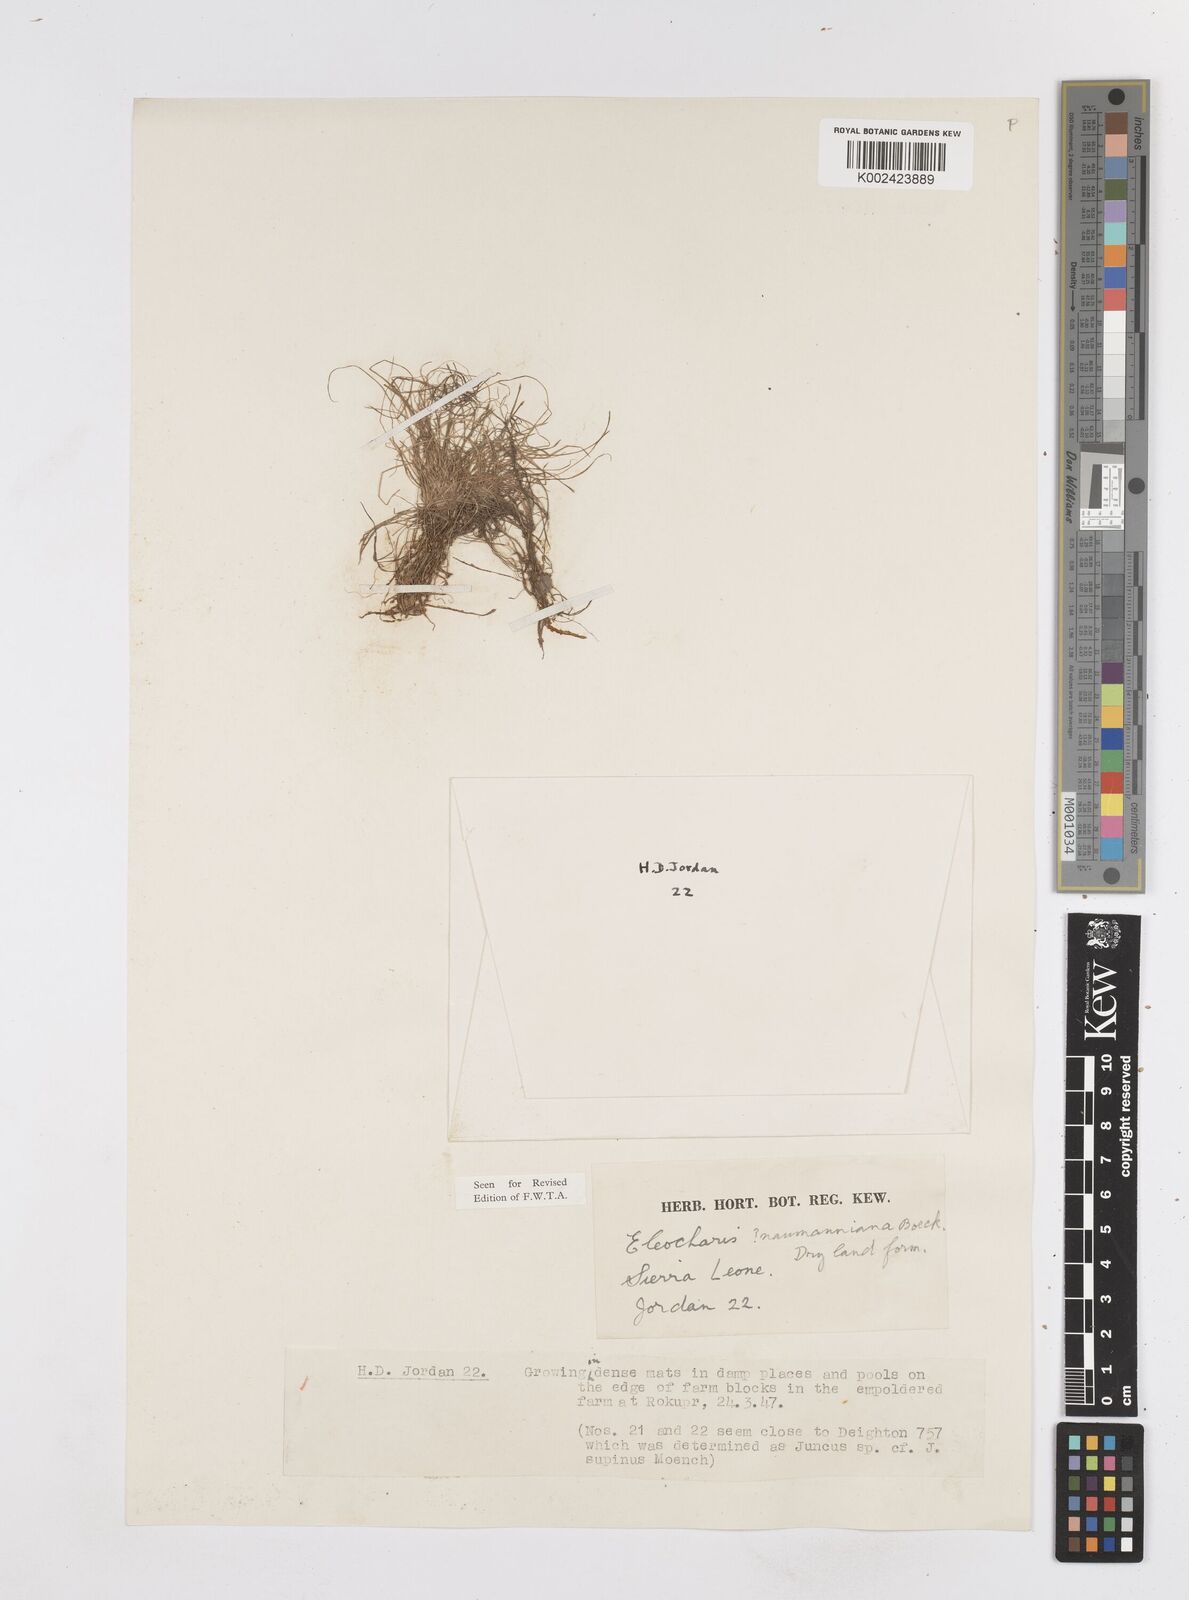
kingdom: Plantae
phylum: Tracheophyta
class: Liliopsida
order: Poales
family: Cyperaceae
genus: Eleocharis
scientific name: Eleocharis naumanniana
